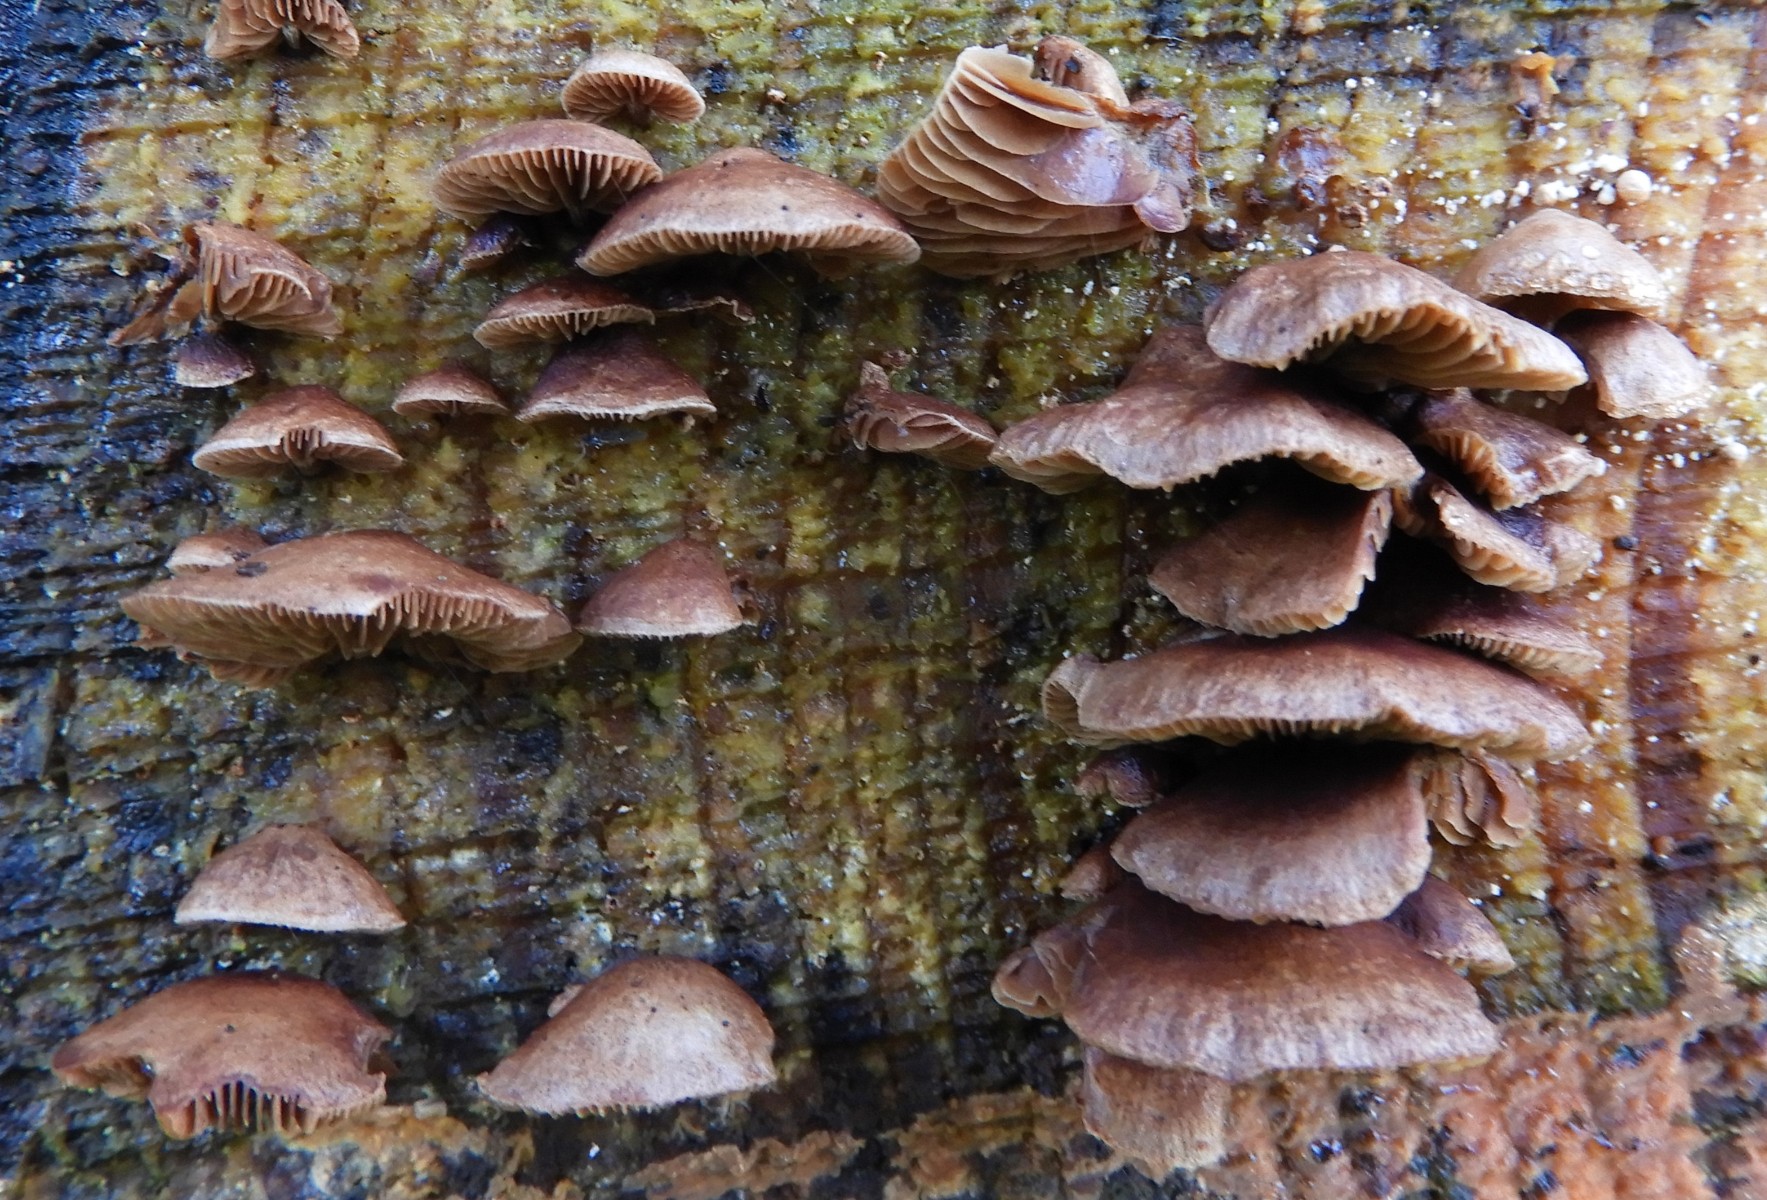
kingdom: Fungi
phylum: Basidiomycota
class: Agaricomycetes
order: Agaricales
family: Strophariaceae
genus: Deconica
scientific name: Deconica horizontalis
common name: ved-stråhat
